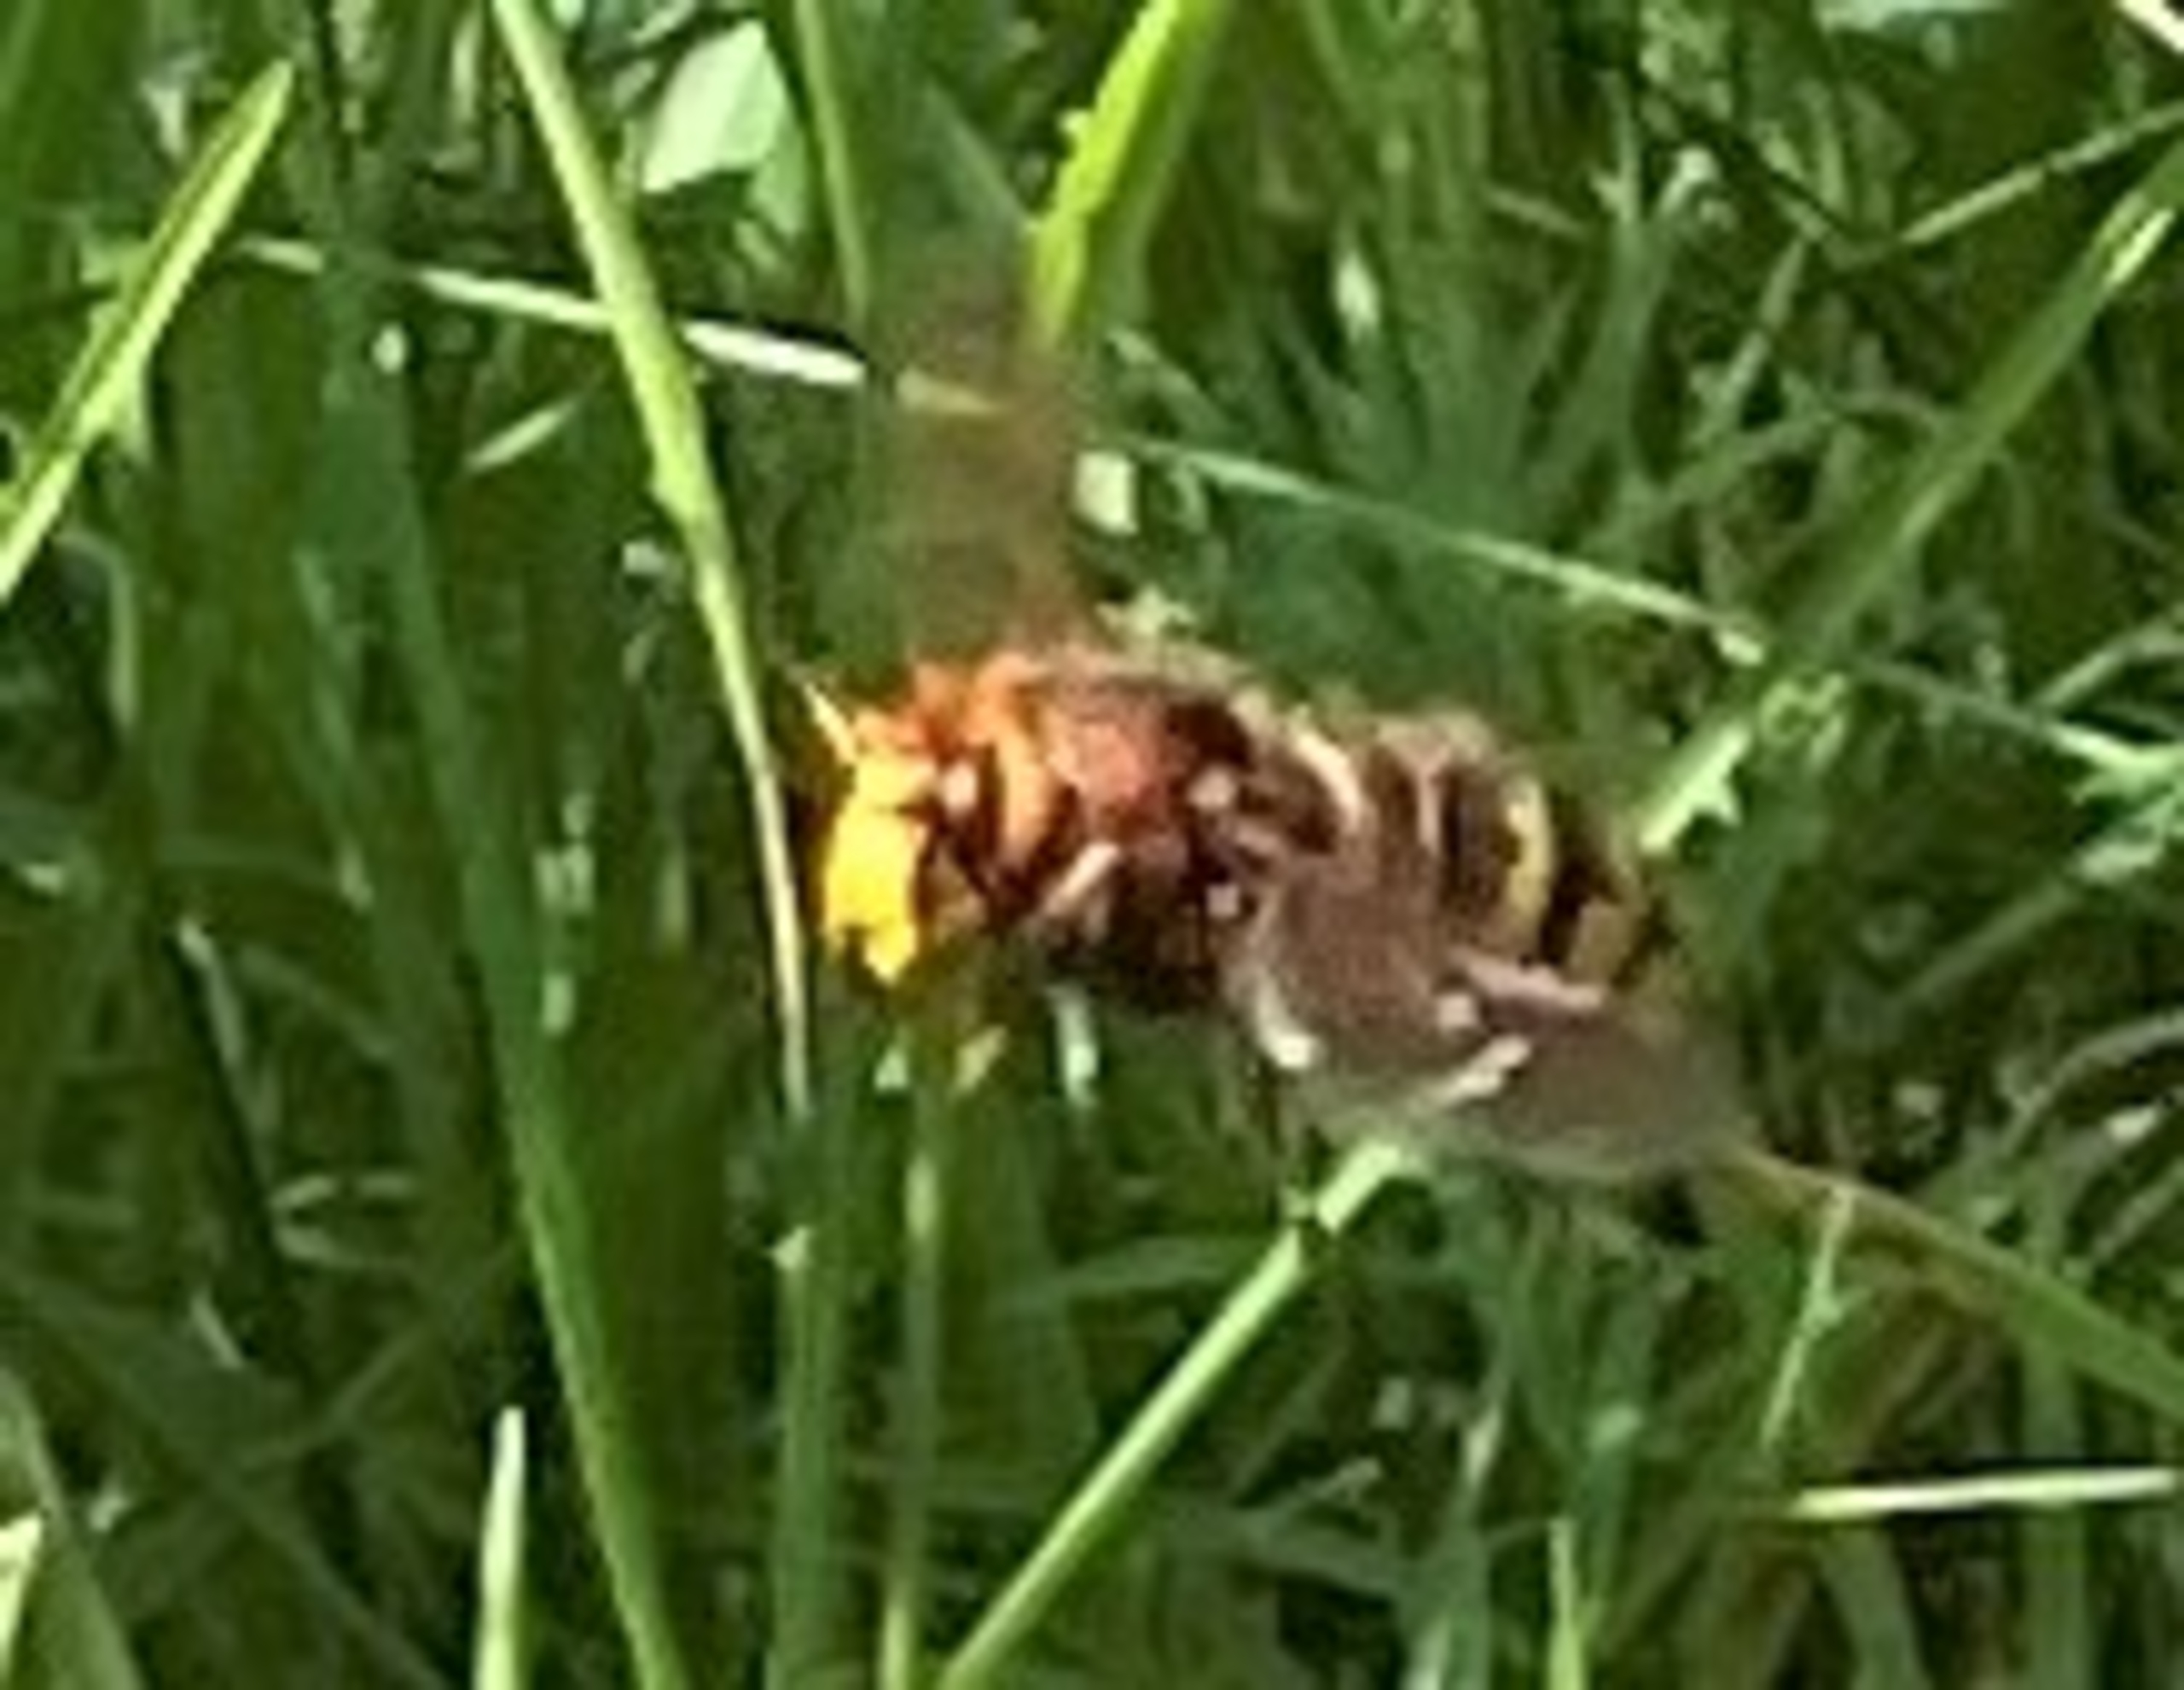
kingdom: Animalia
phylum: Arthropoda
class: Insecta
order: Hymenoptera
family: Vespidae
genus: Vespa
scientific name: Vespa crabro
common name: Stor gedehams
